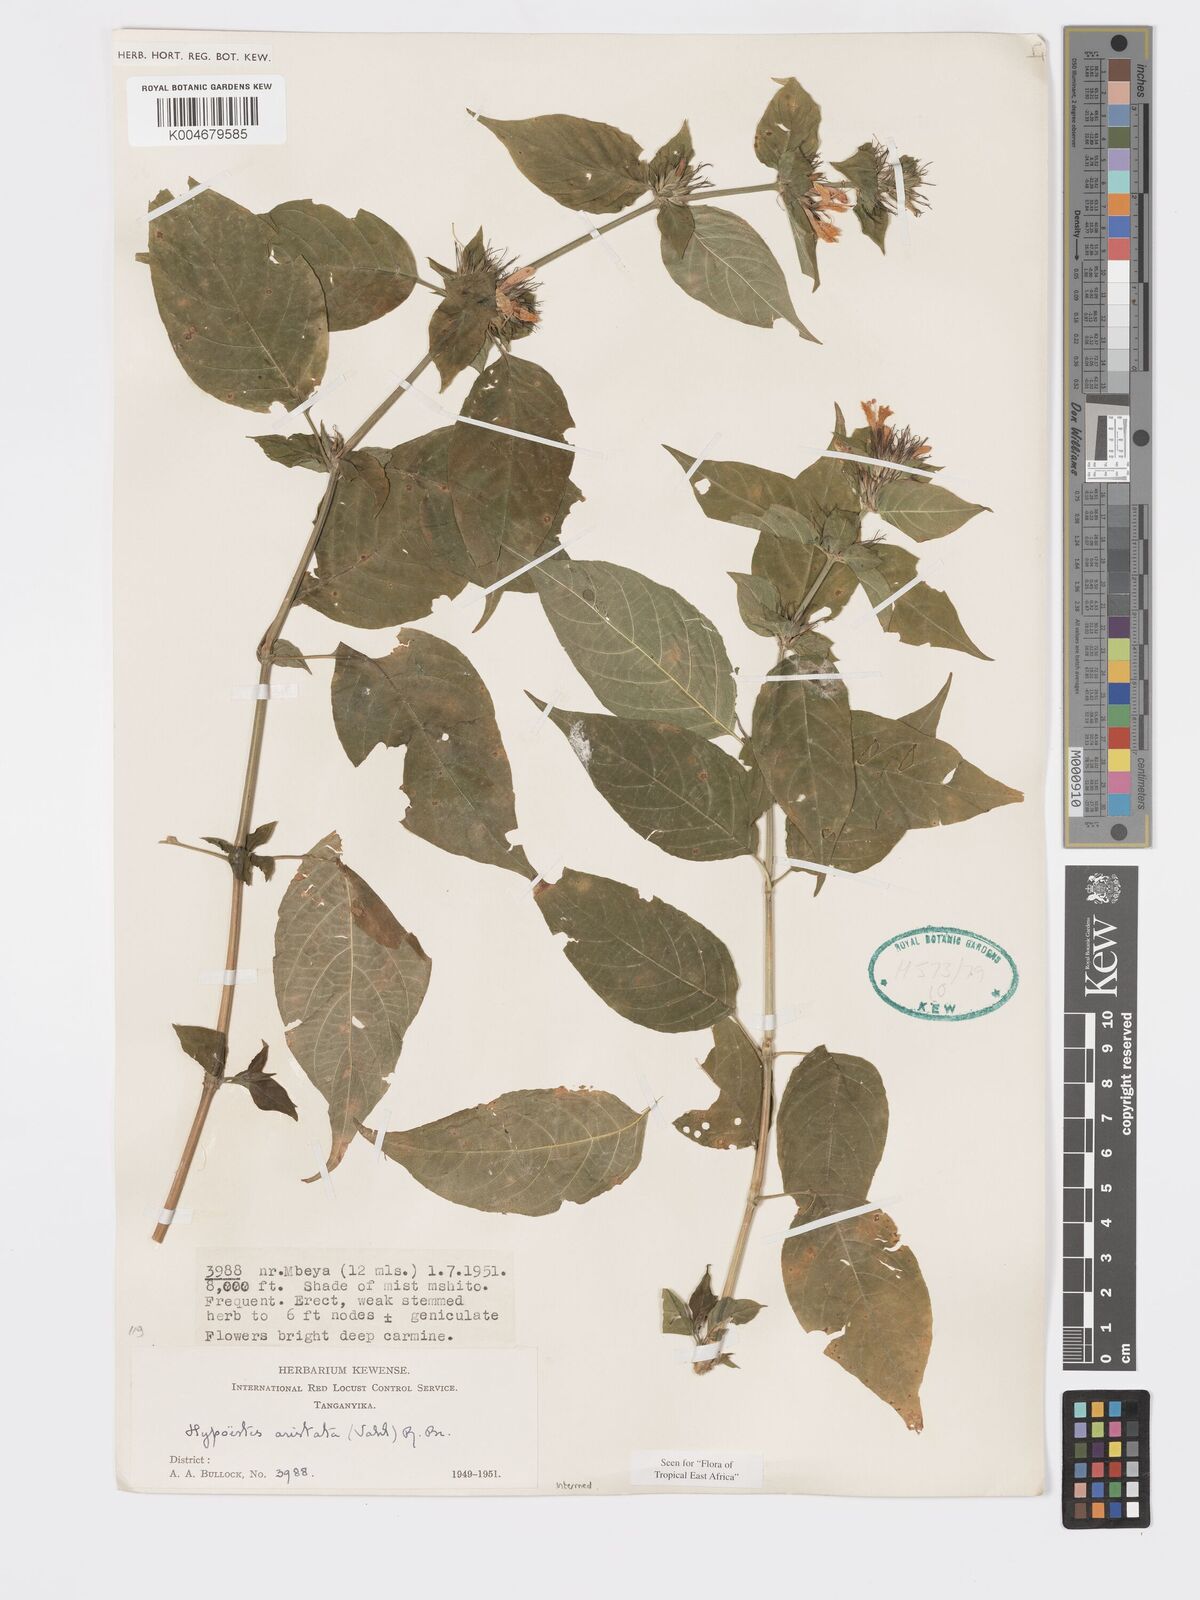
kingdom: Plantae
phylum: Tracheophyta
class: Magnoliopsida
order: Lamiales
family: Acanthaceae
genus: Hypoestes
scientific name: Hypoestes aristata
